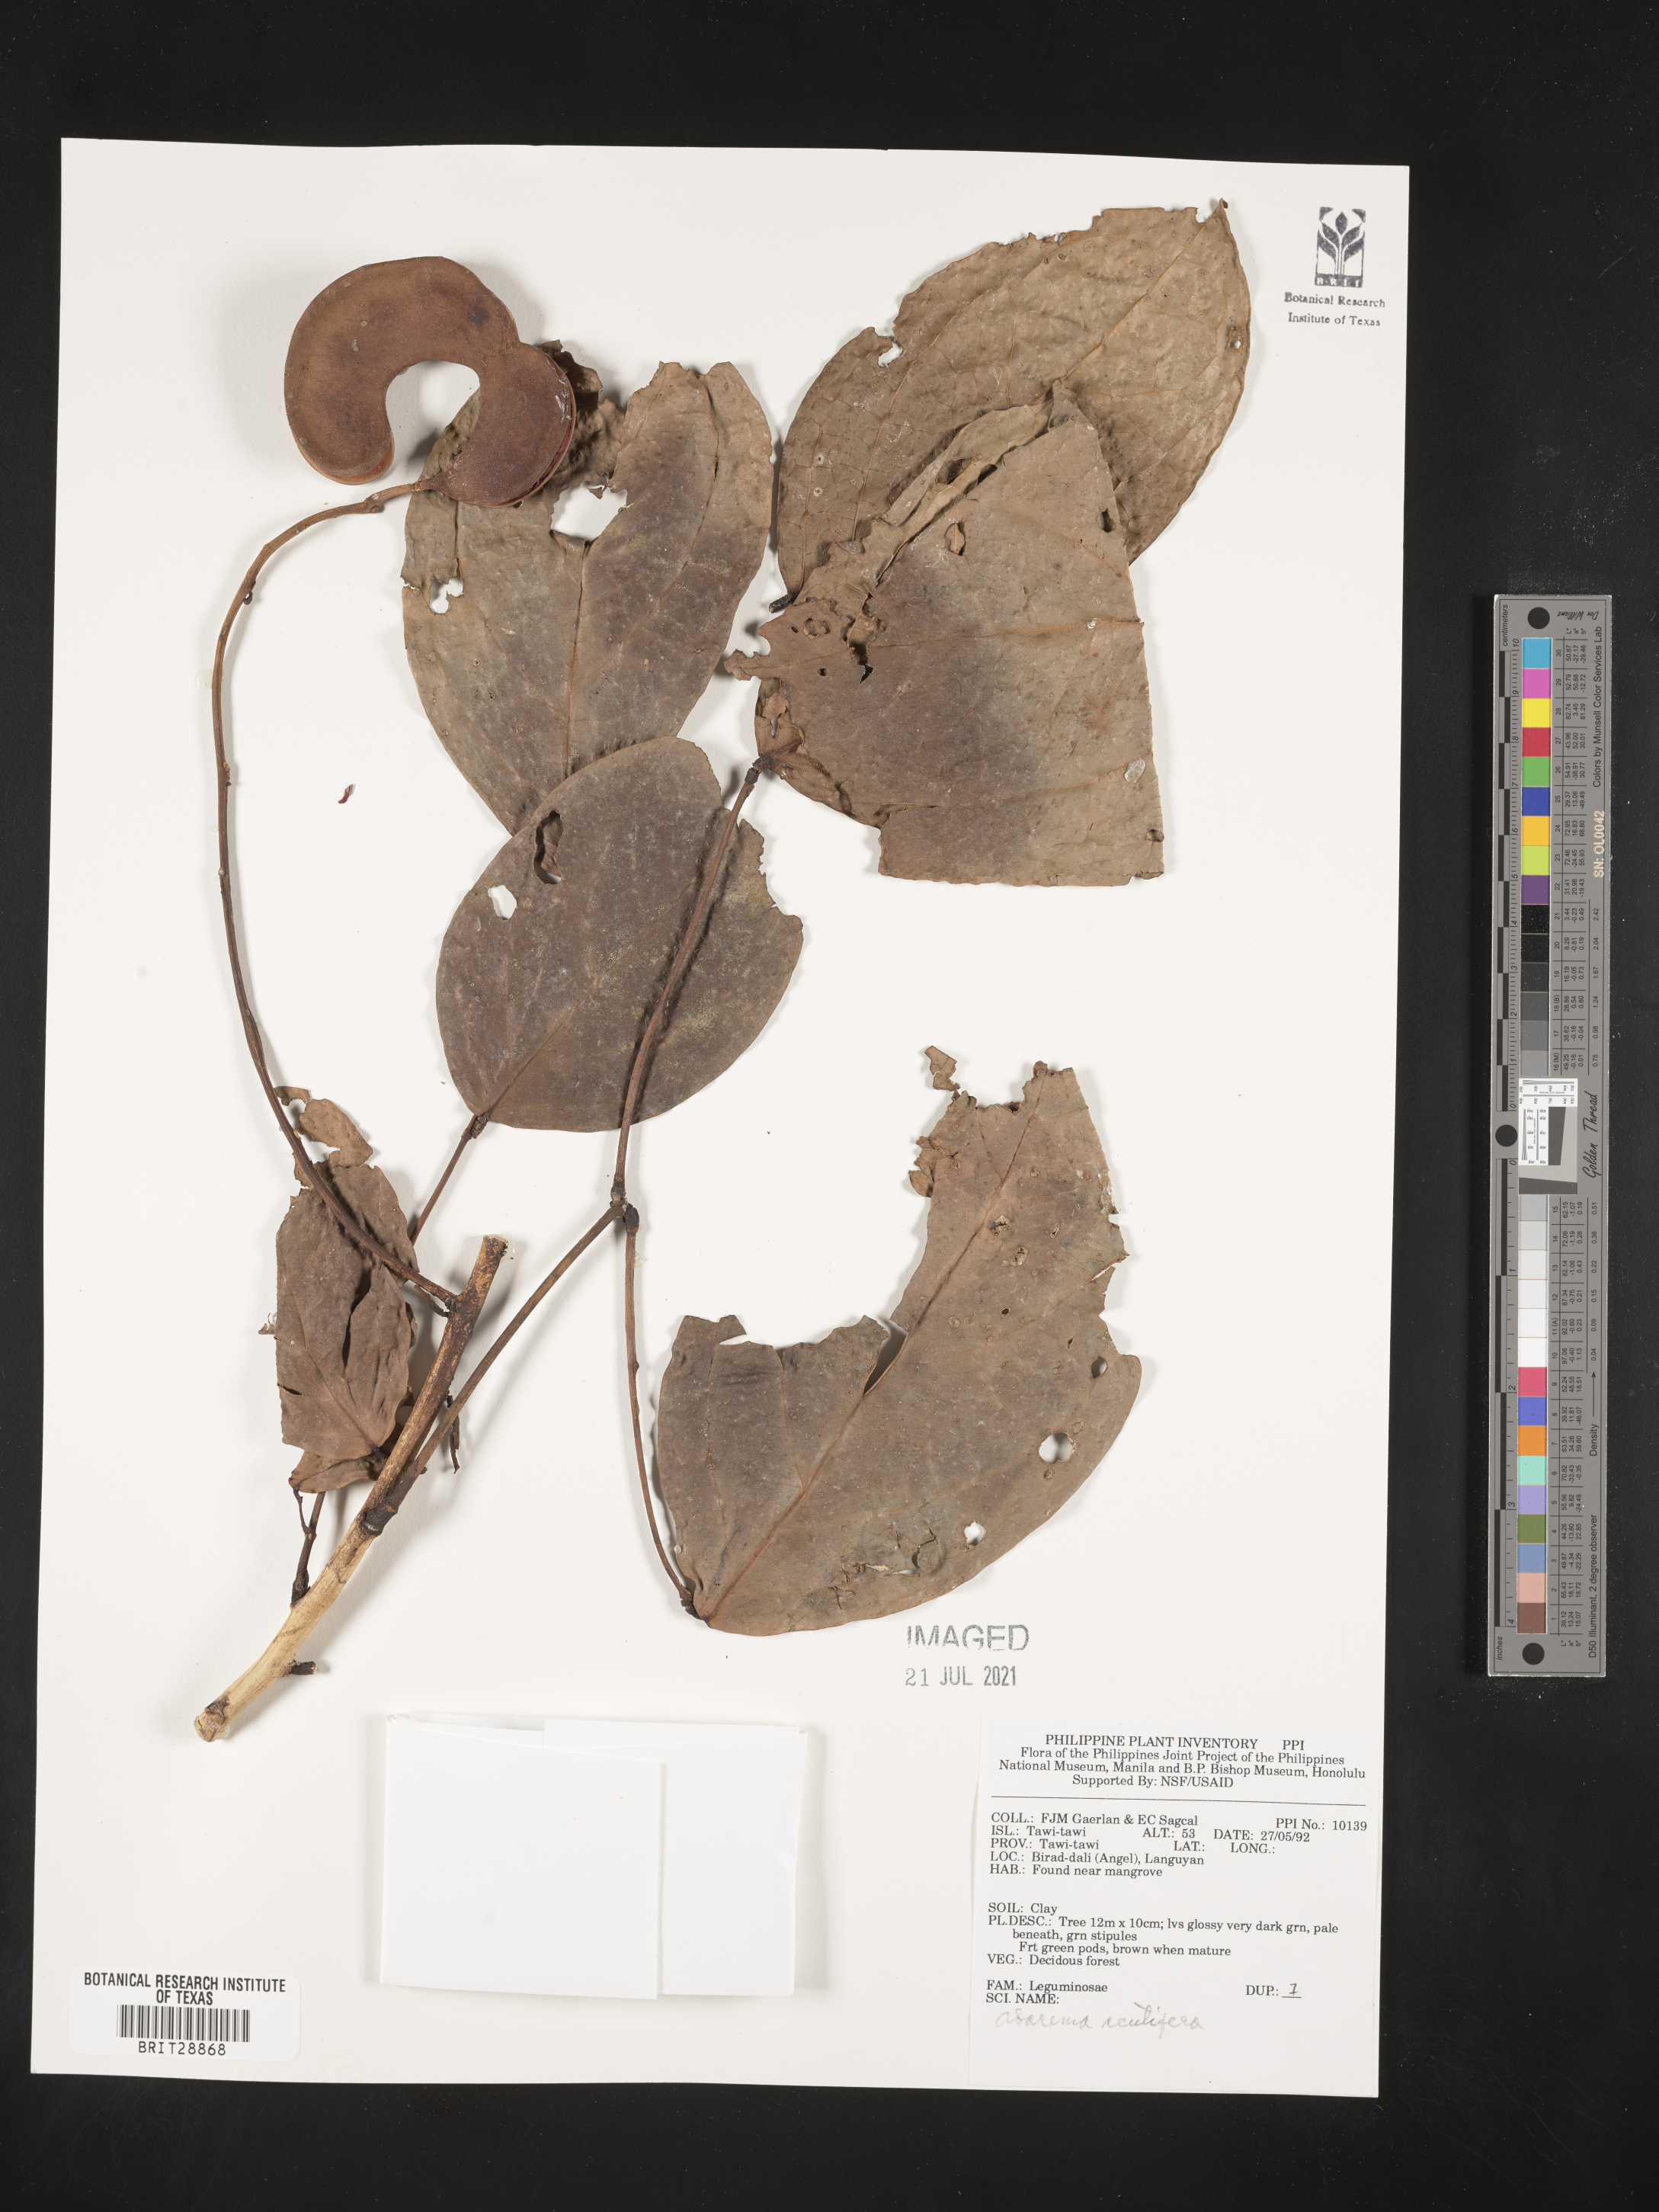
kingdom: Plantae
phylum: Tracheophyta
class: Magnoliopsida
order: Fabales
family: Fabaceae
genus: Archidendron
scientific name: Archidendron scutiferum
